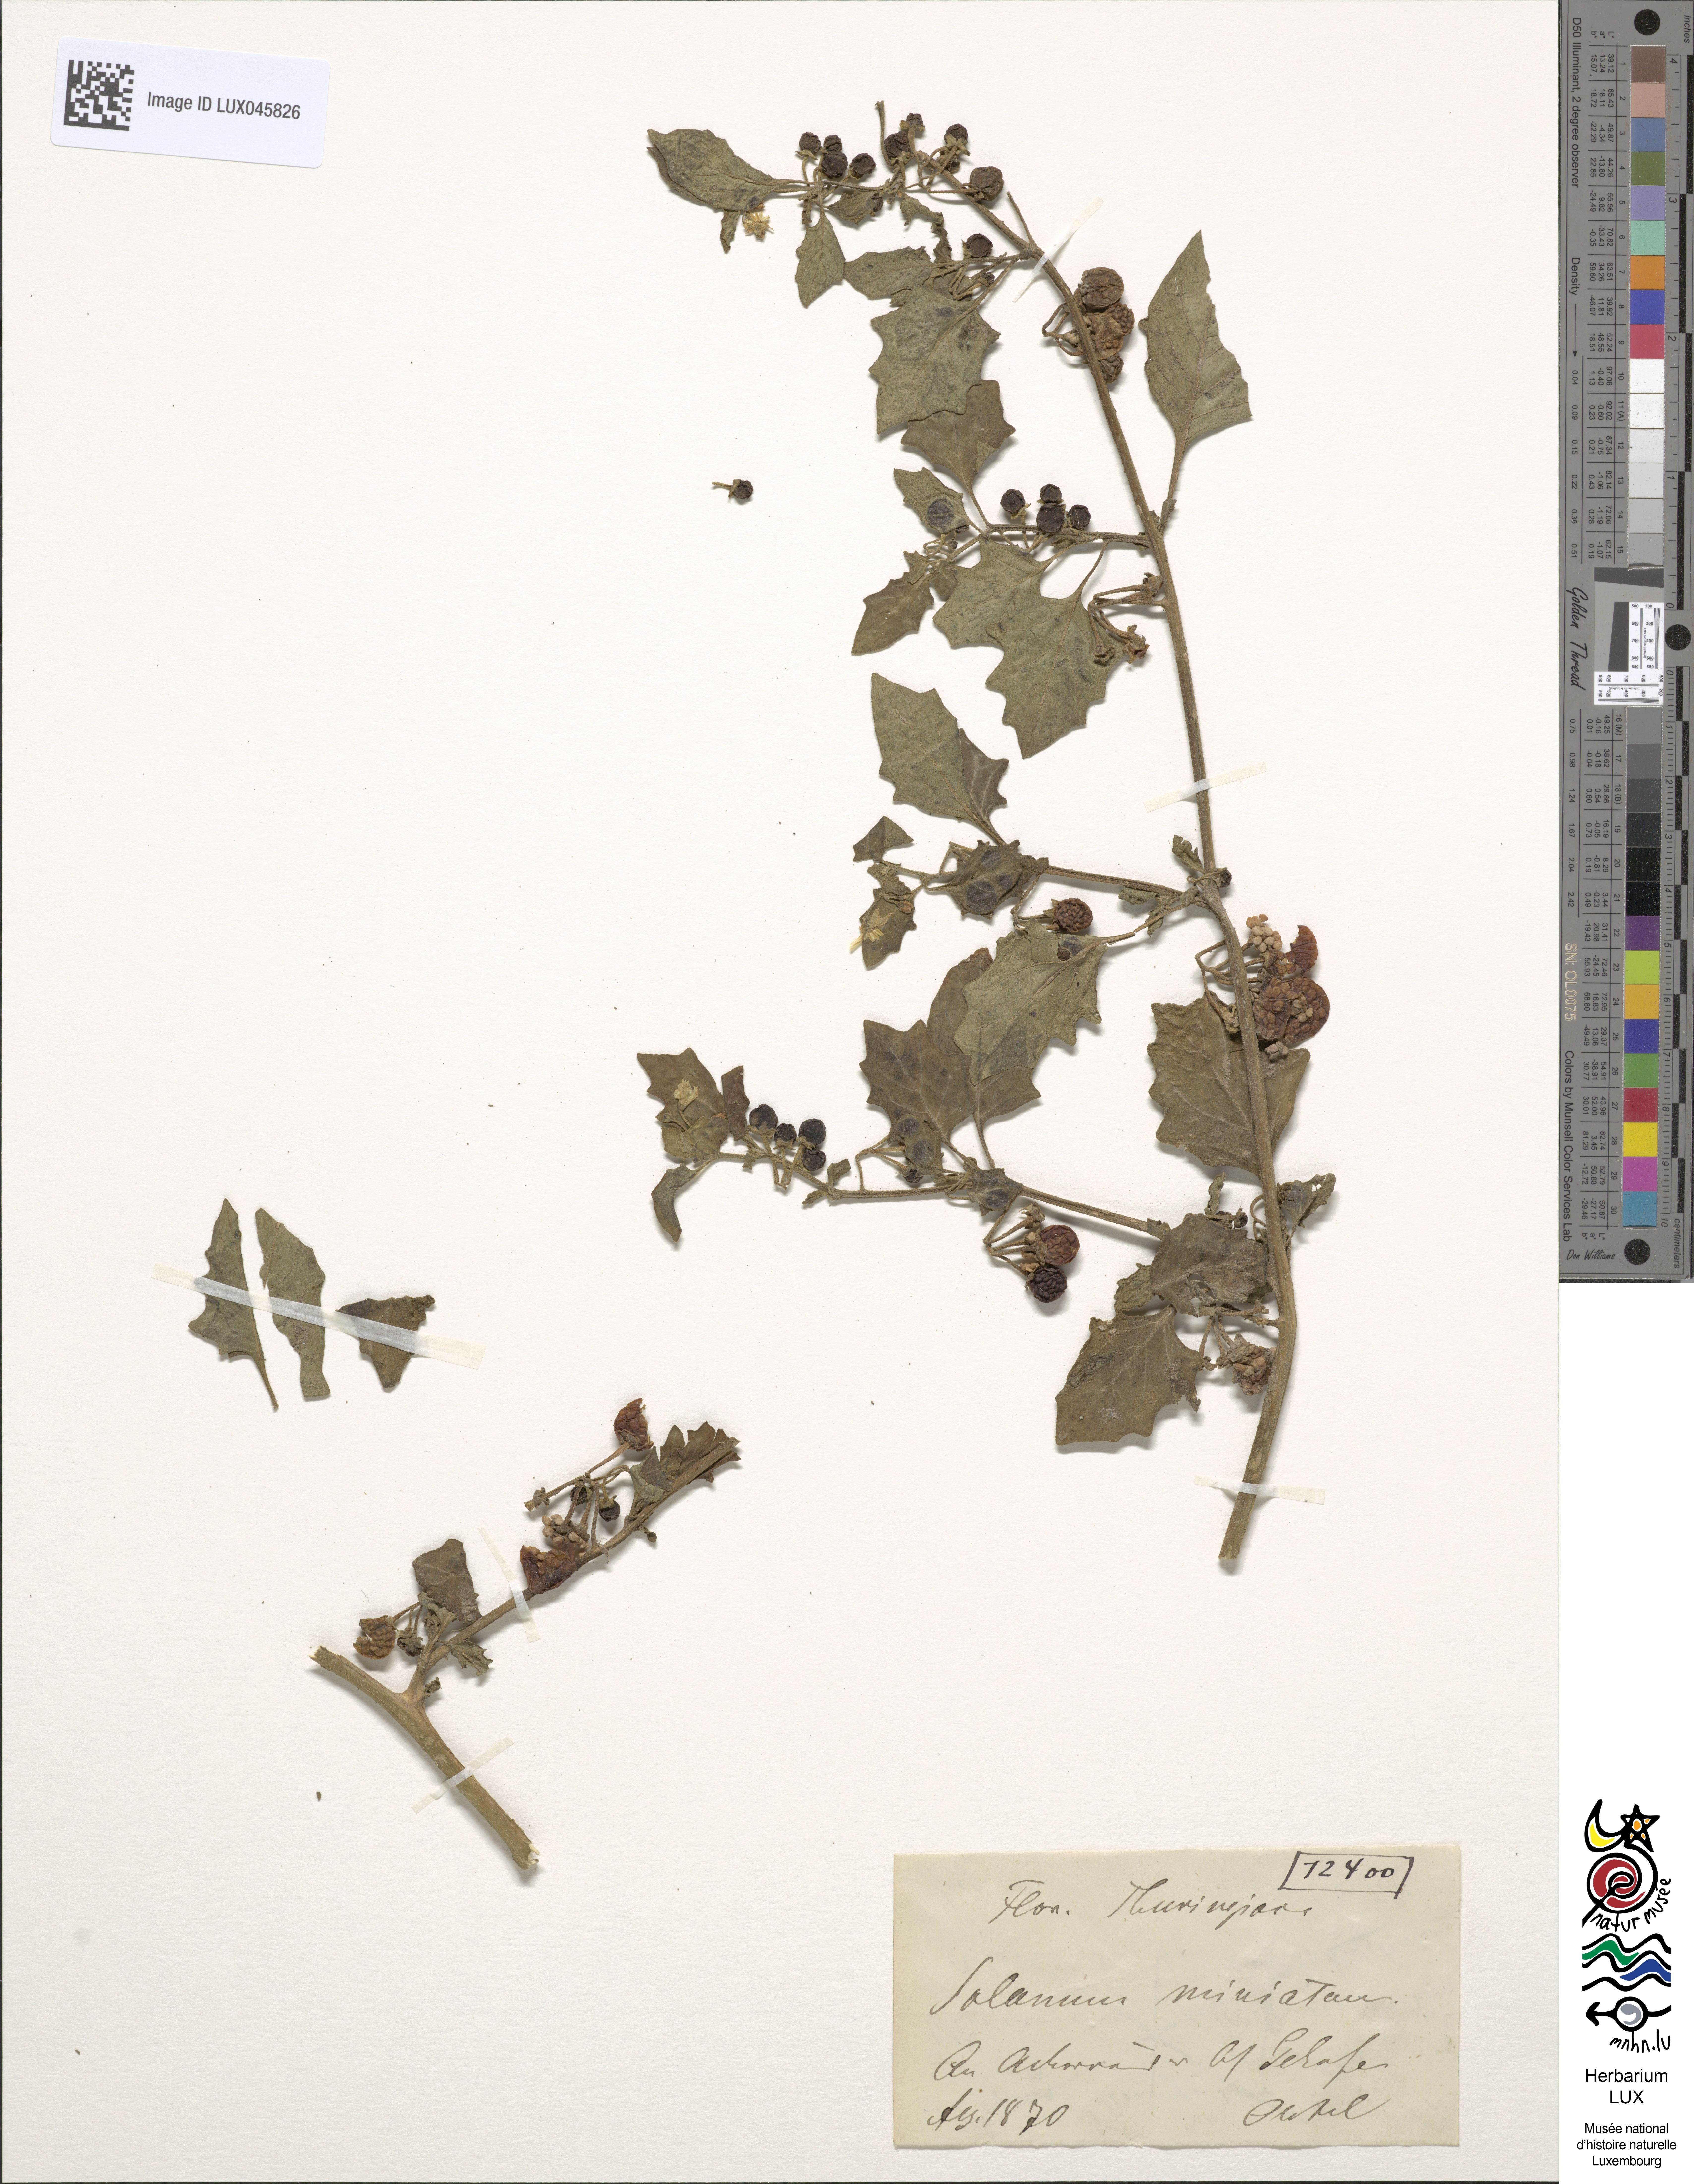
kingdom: Plantae
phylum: Tracheophyta
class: Magnoliopsida
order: Solanales
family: Solanaceae
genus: Solanum
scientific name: Solanum alatum
